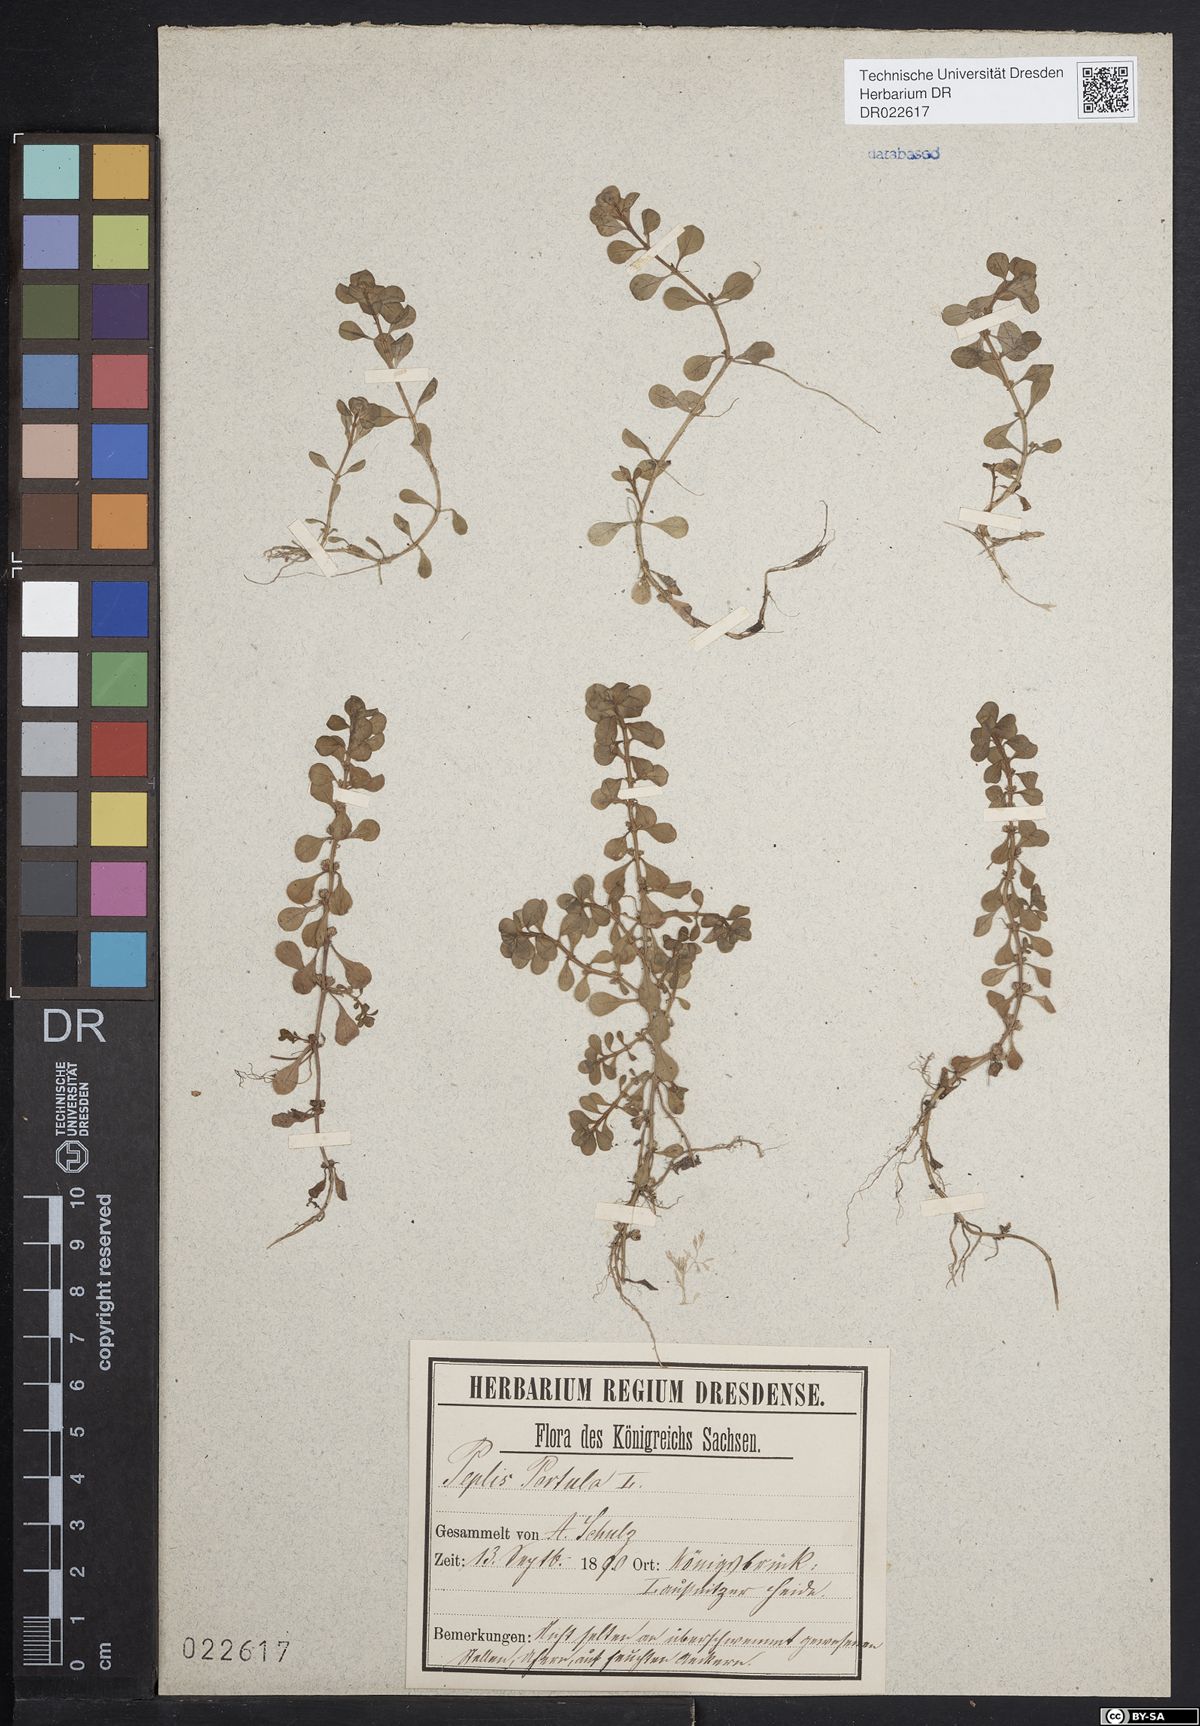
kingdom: Plantae
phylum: Tracheophyta
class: Magnoliopsida
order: Myrtales
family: Lythraceae
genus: Lythrum
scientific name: Lythrum portula
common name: Water purslane
